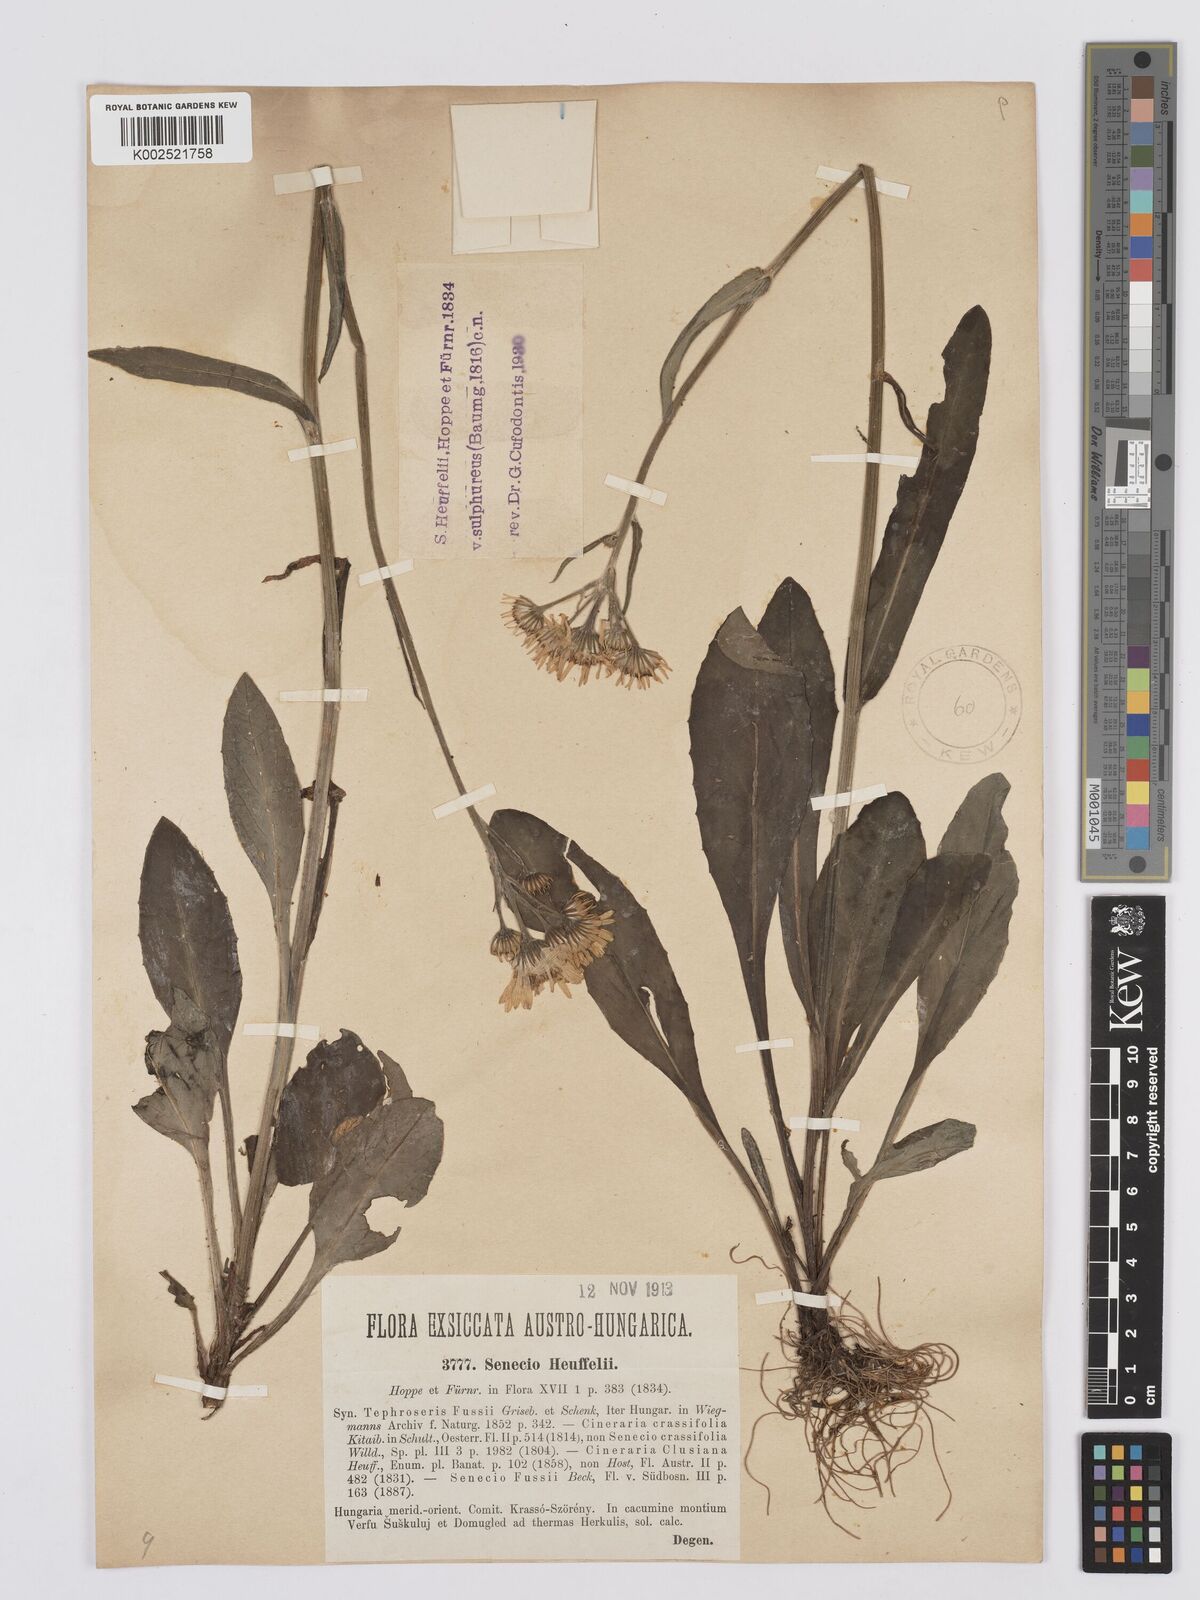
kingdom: Plantae
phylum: Tracheophyta
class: Magnoliopsida
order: Asterales
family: Asteraceae
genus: Tephroseris
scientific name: Tephroseris papposa
